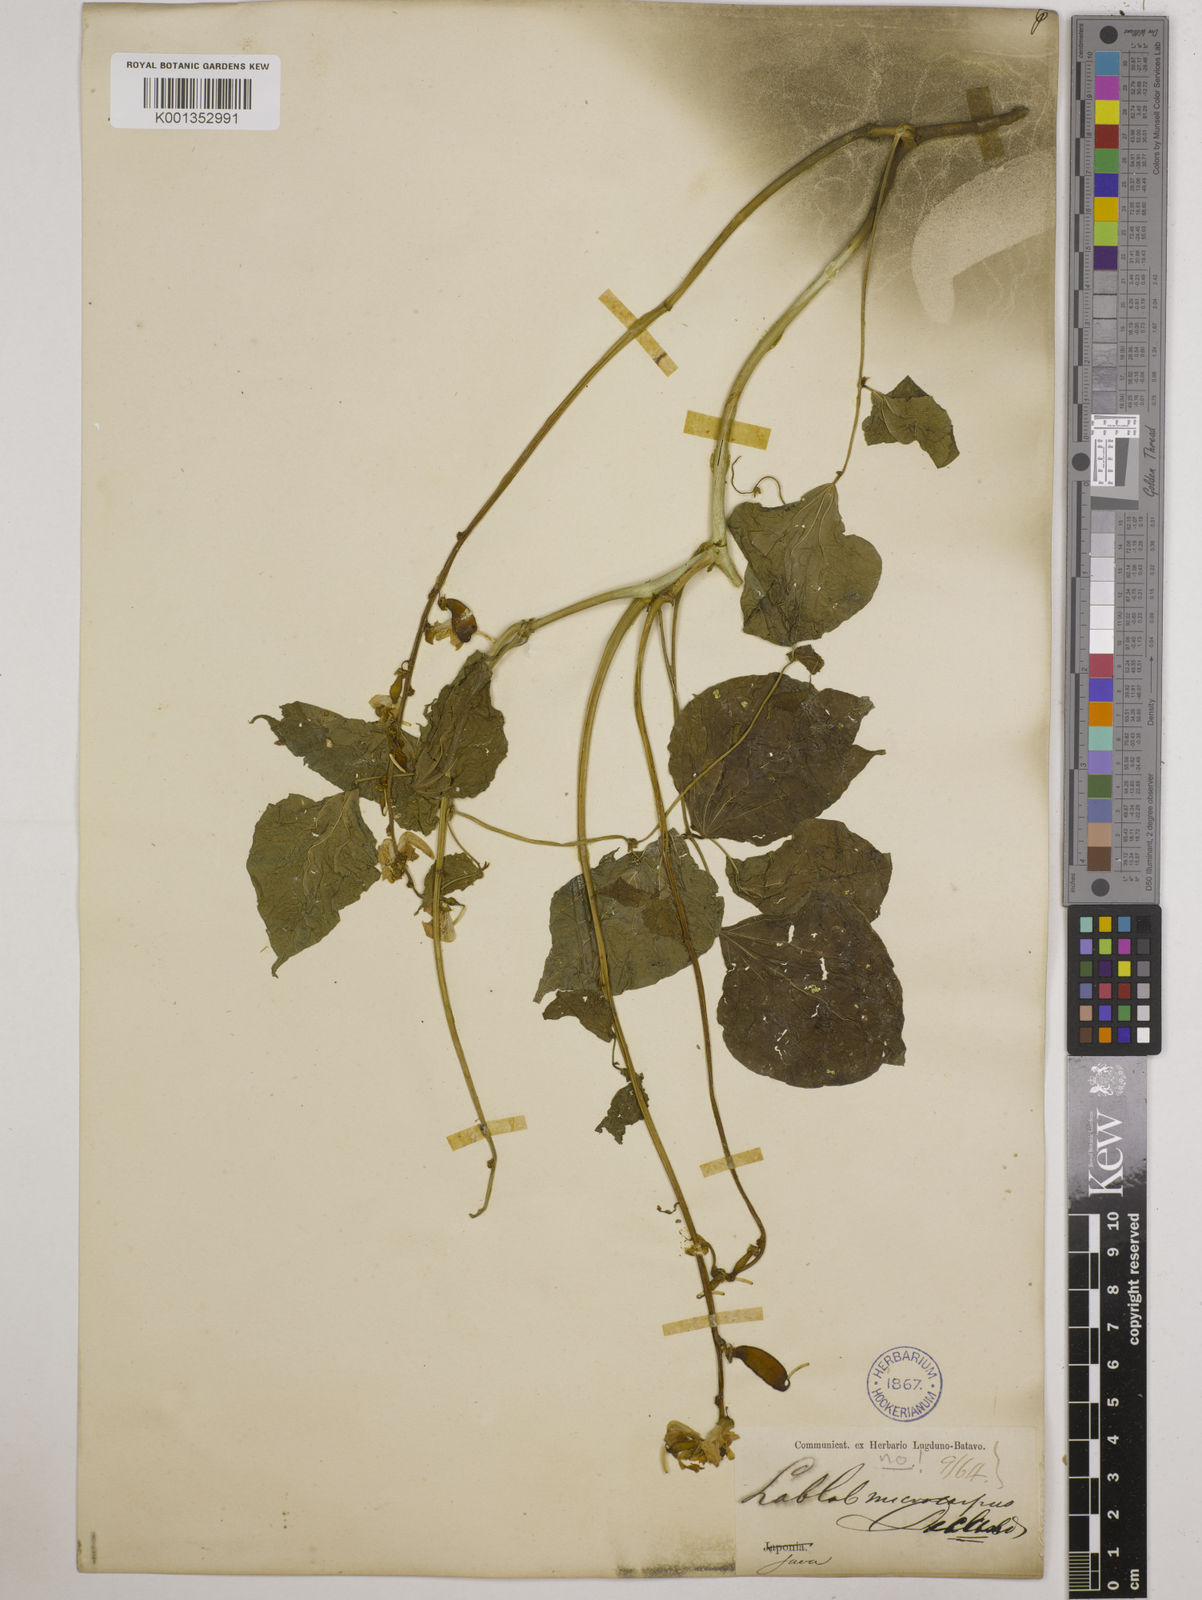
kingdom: Plantae
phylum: Tracheophyta
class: Magnoliopsida
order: Fabales
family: Fabaceae
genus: Lablab
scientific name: Lablab purpureus
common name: Lablab-bean
